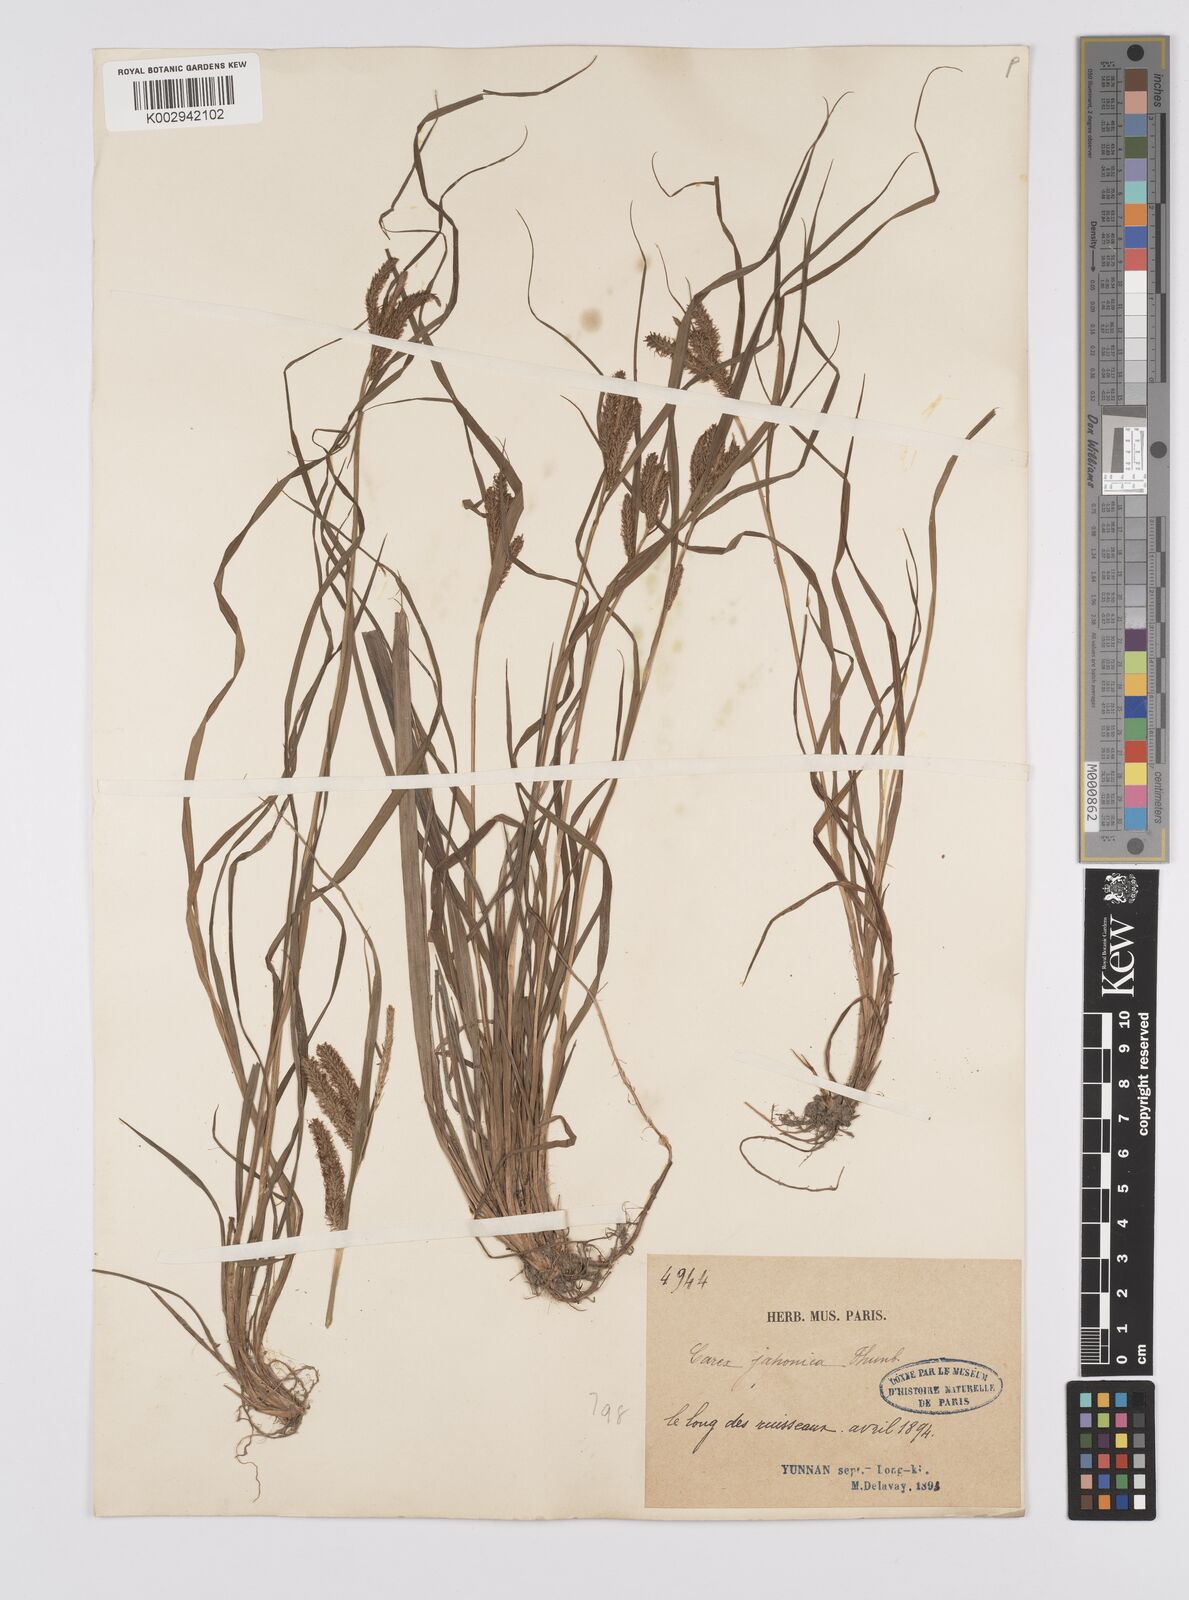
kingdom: Plantae
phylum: Tracheophyta
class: Liliopsida
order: Poales
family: Cyperaceae
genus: Carex
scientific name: Carex japonica
